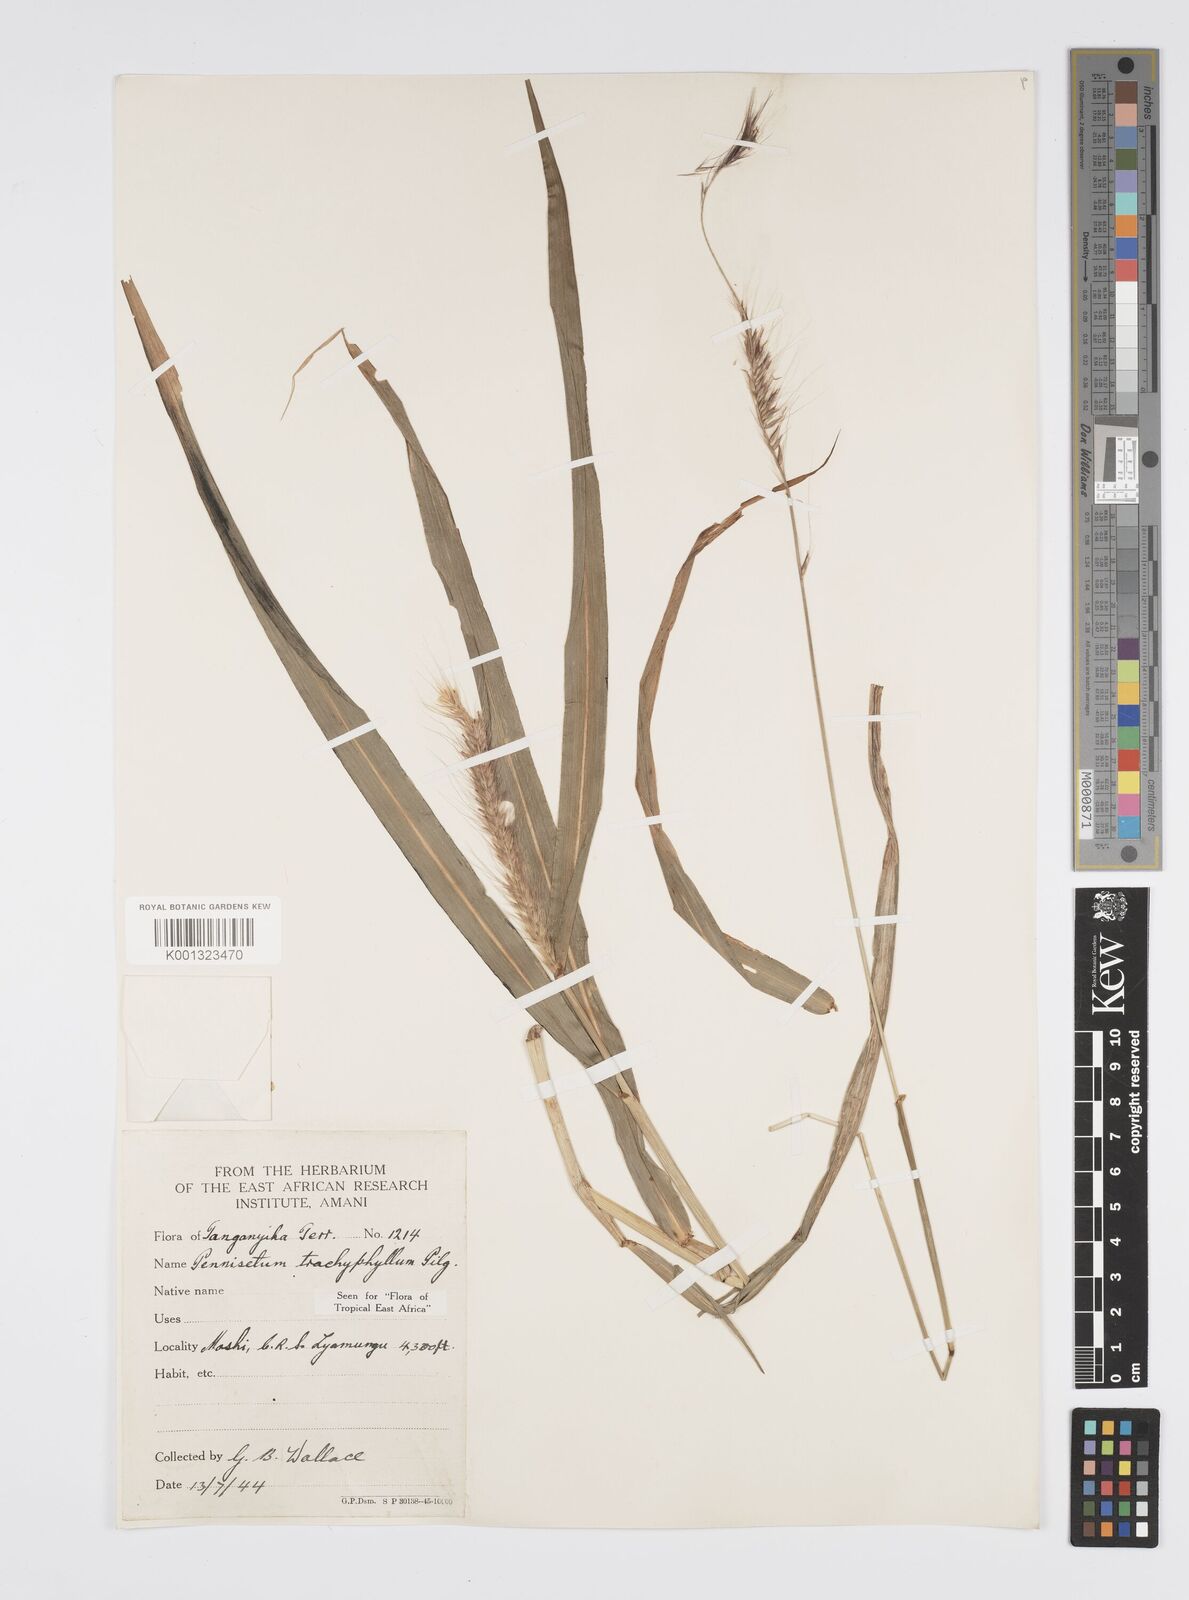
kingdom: Plantae
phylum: Tracheophyta
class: Liliopsida
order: Poales
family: Poaceae
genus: Cenchrus
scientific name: Cenchrus trachyphyllus
